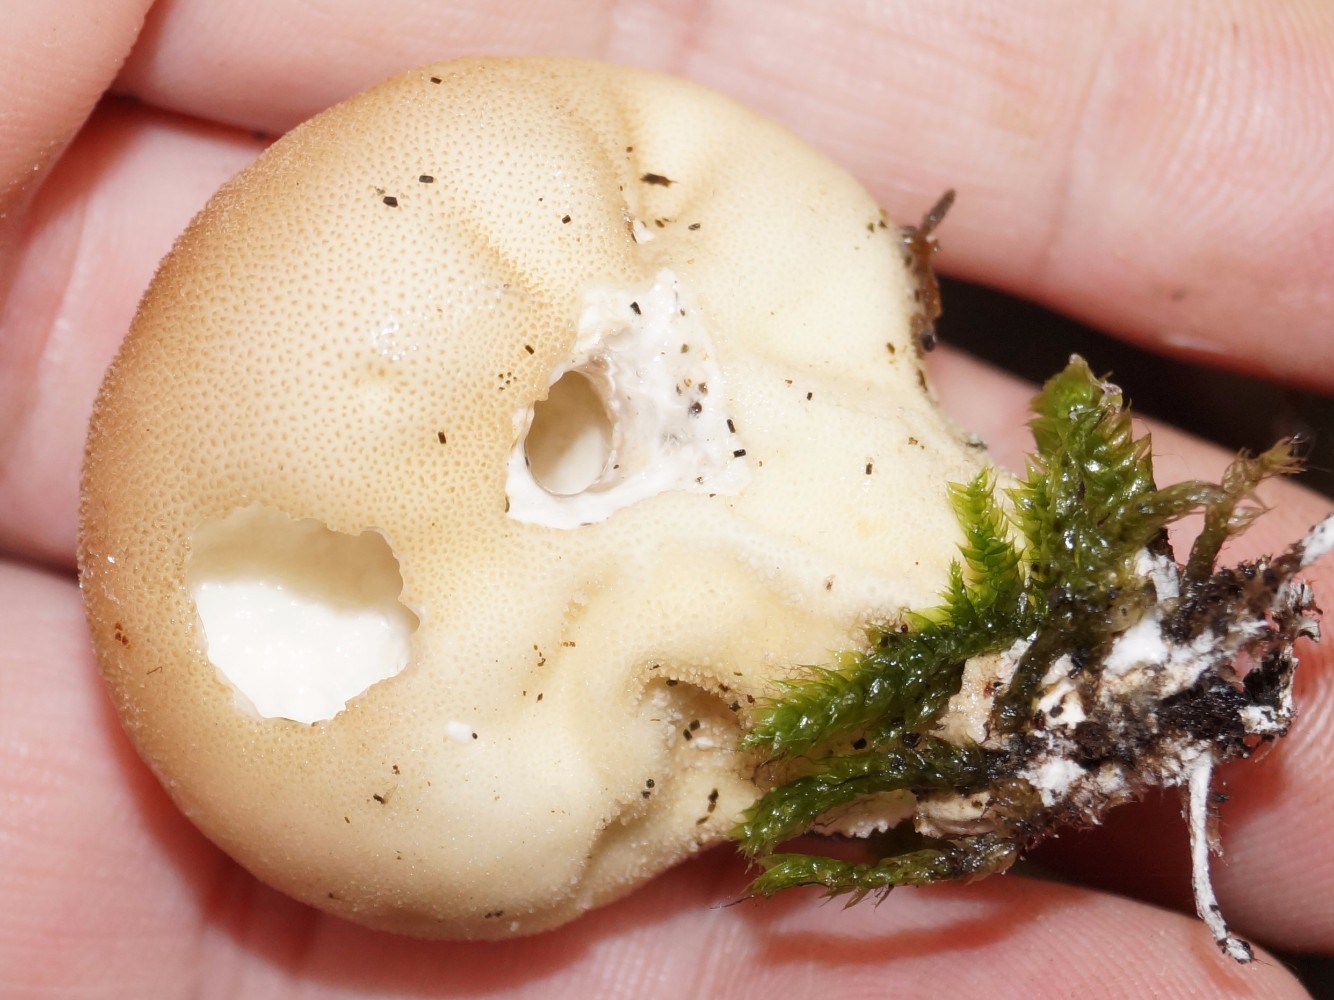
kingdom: Fungi
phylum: Basidiomycota
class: Agaricomycetes
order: Agaricales
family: Lycoperdaceae
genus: Apioperdon
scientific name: Apioperdon pyriforme
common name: pære-støvbold
